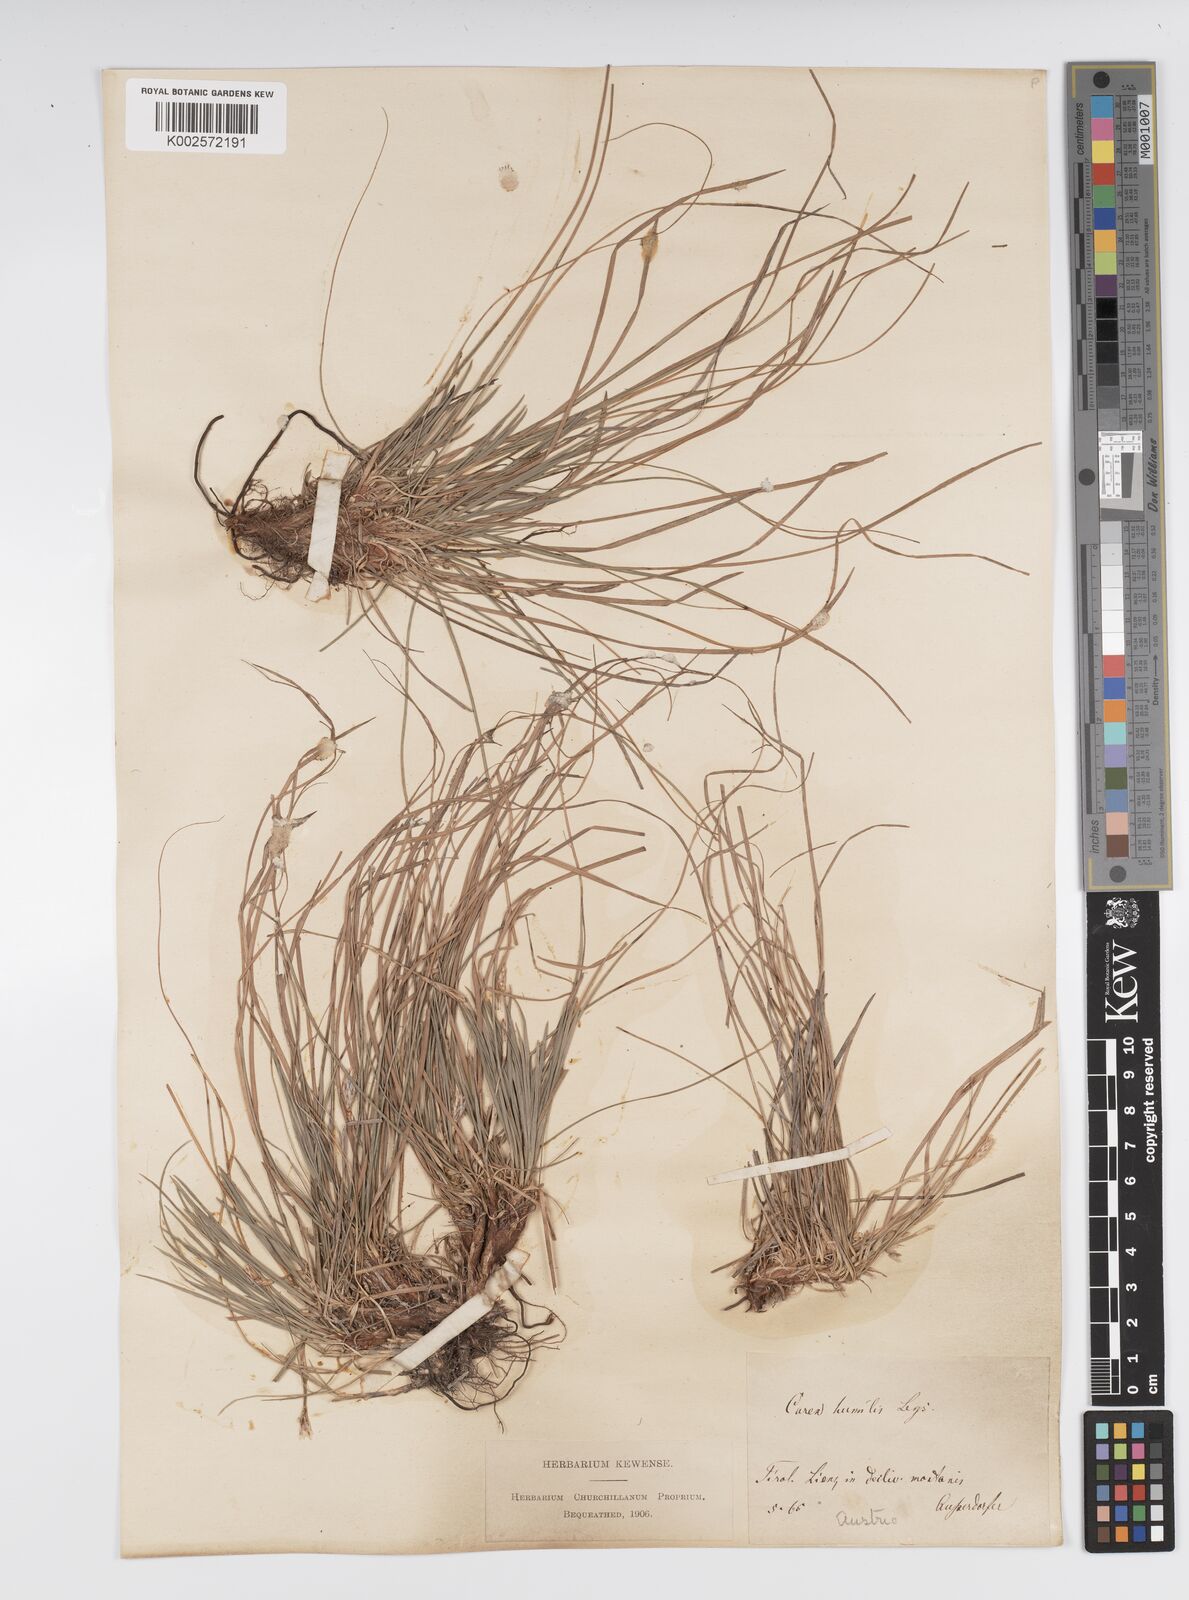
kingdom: Plantae
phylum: Tracheophyta
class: Liliopsida
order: Poales
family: Cyperaceae
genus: Carex
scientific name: Carex humilis
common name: Dwarf sedge
